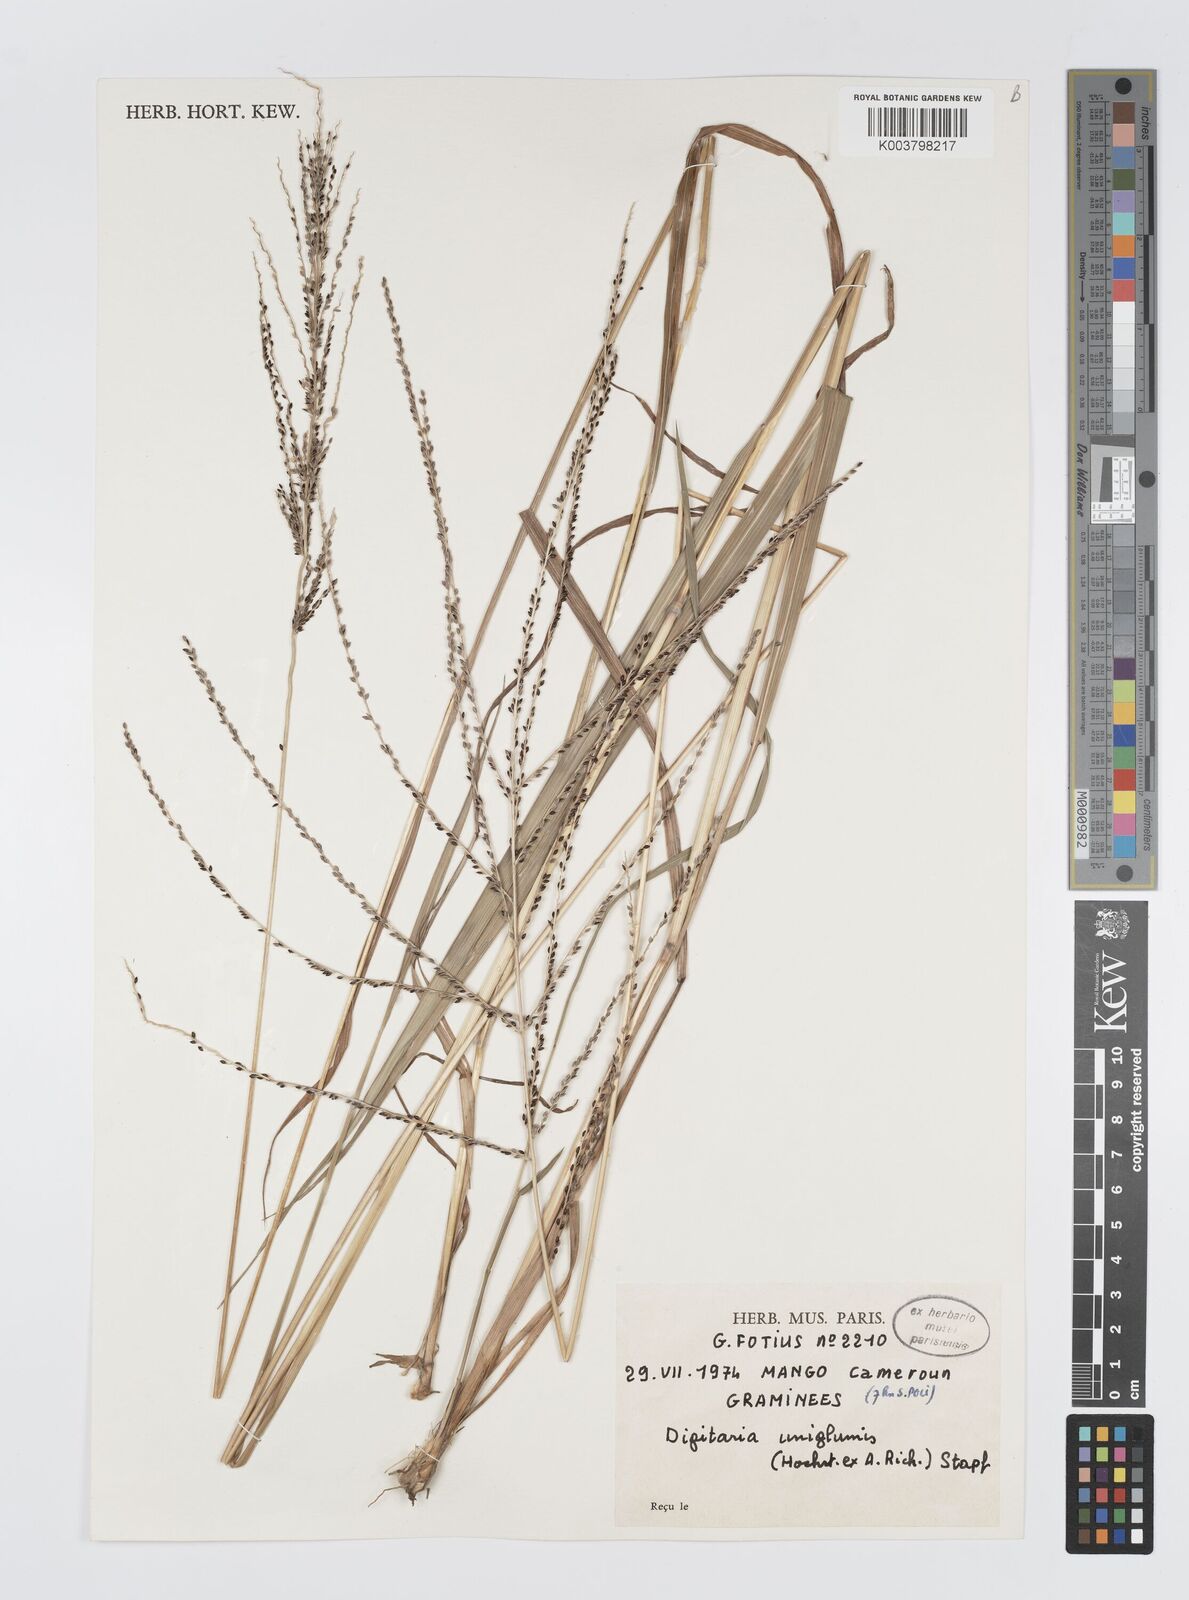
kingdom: Plantae
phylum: Tracheophyta
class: Liliopsida
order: Poales
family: Poaceae
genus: Digitaria
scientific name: Digitaria diagonalis
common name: Brown-seed finger grass
